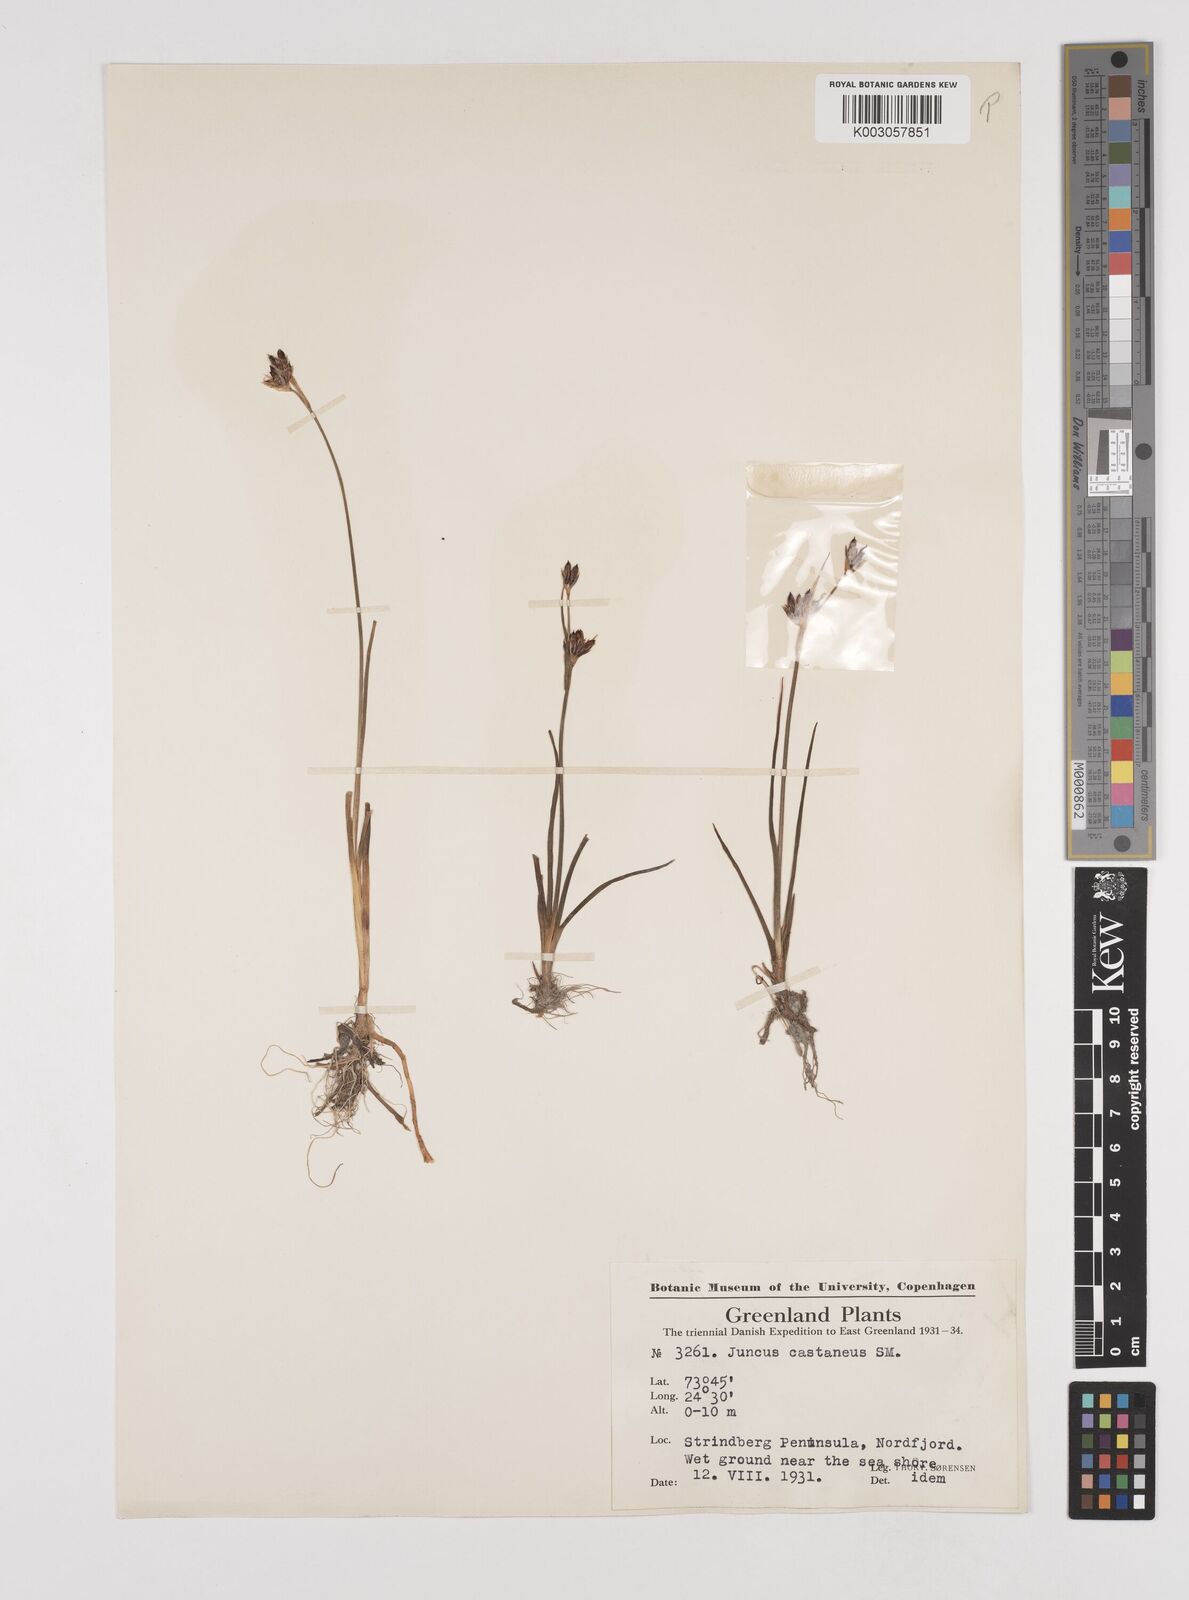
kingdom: Plantae
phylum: Tracheophyta
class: Liliopsida
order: Poales
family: Juncaceae
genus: Juncus
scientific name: Juncus castaneus
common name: Chestnut rush
